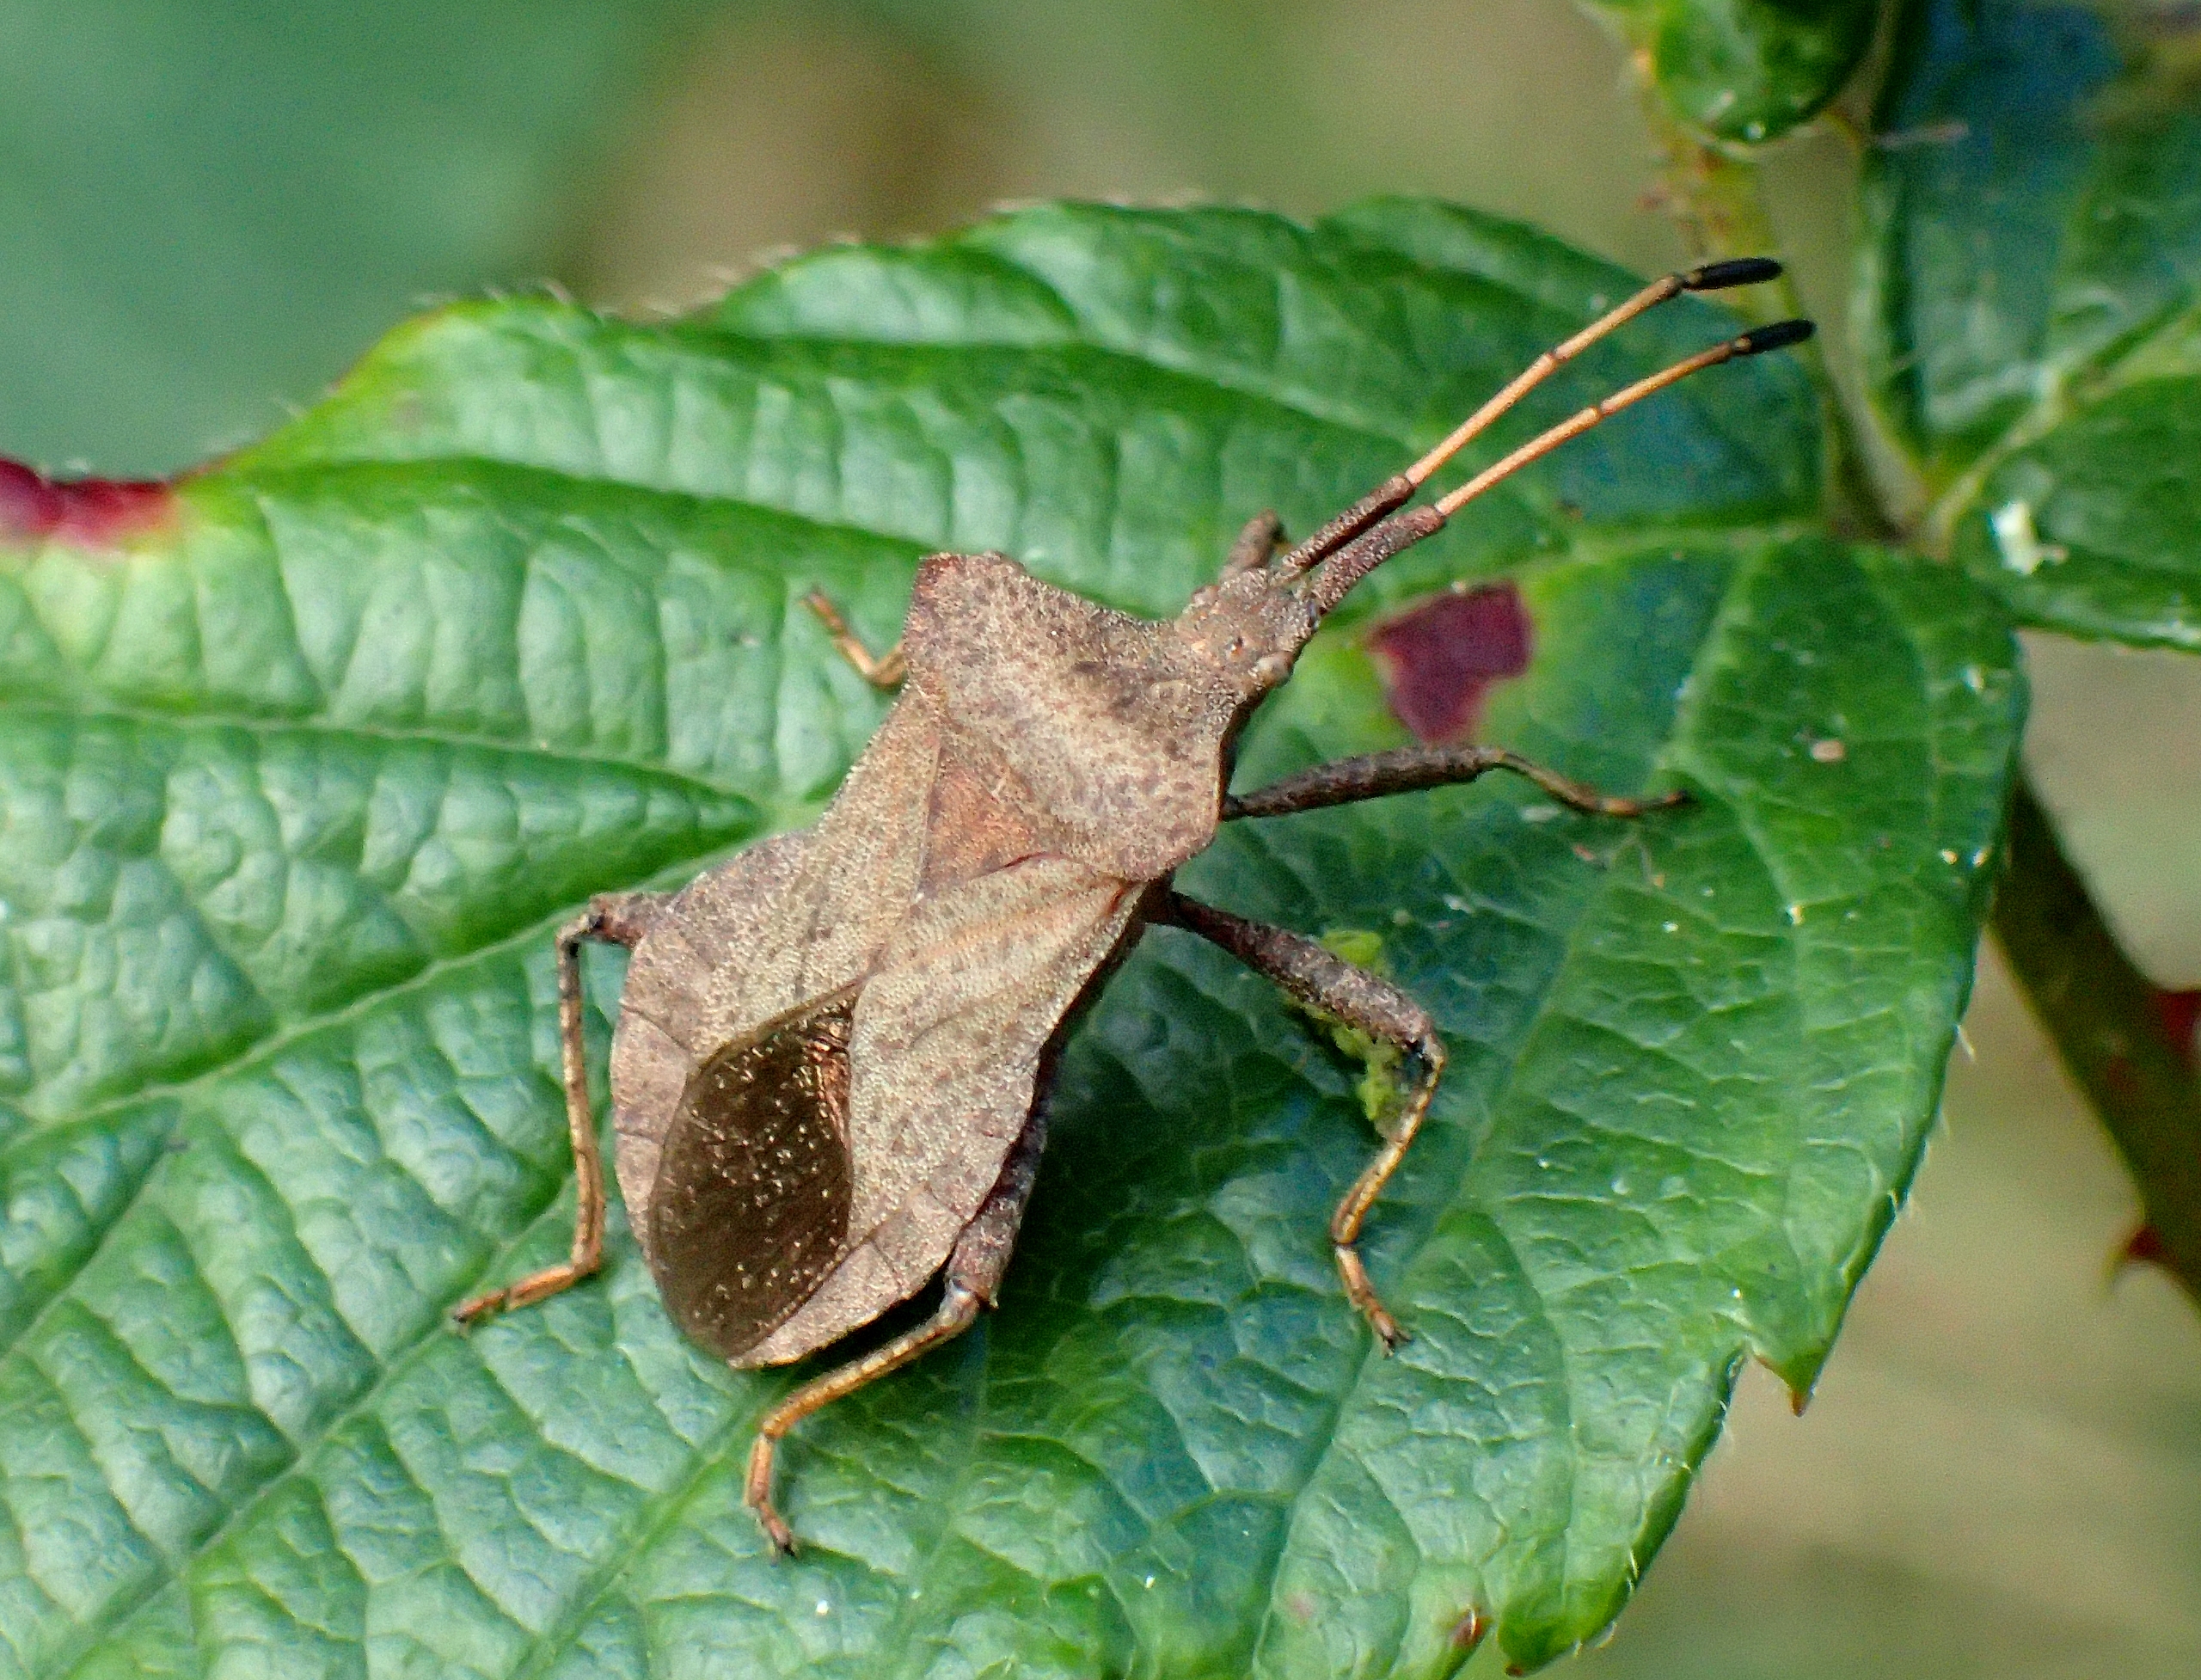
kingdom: Animalia
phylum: Arthropoda
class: Insecta
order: Hemiptera
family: Coreidae
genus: Coreus
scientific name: Coreus marginatus
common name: Skræppetæge
